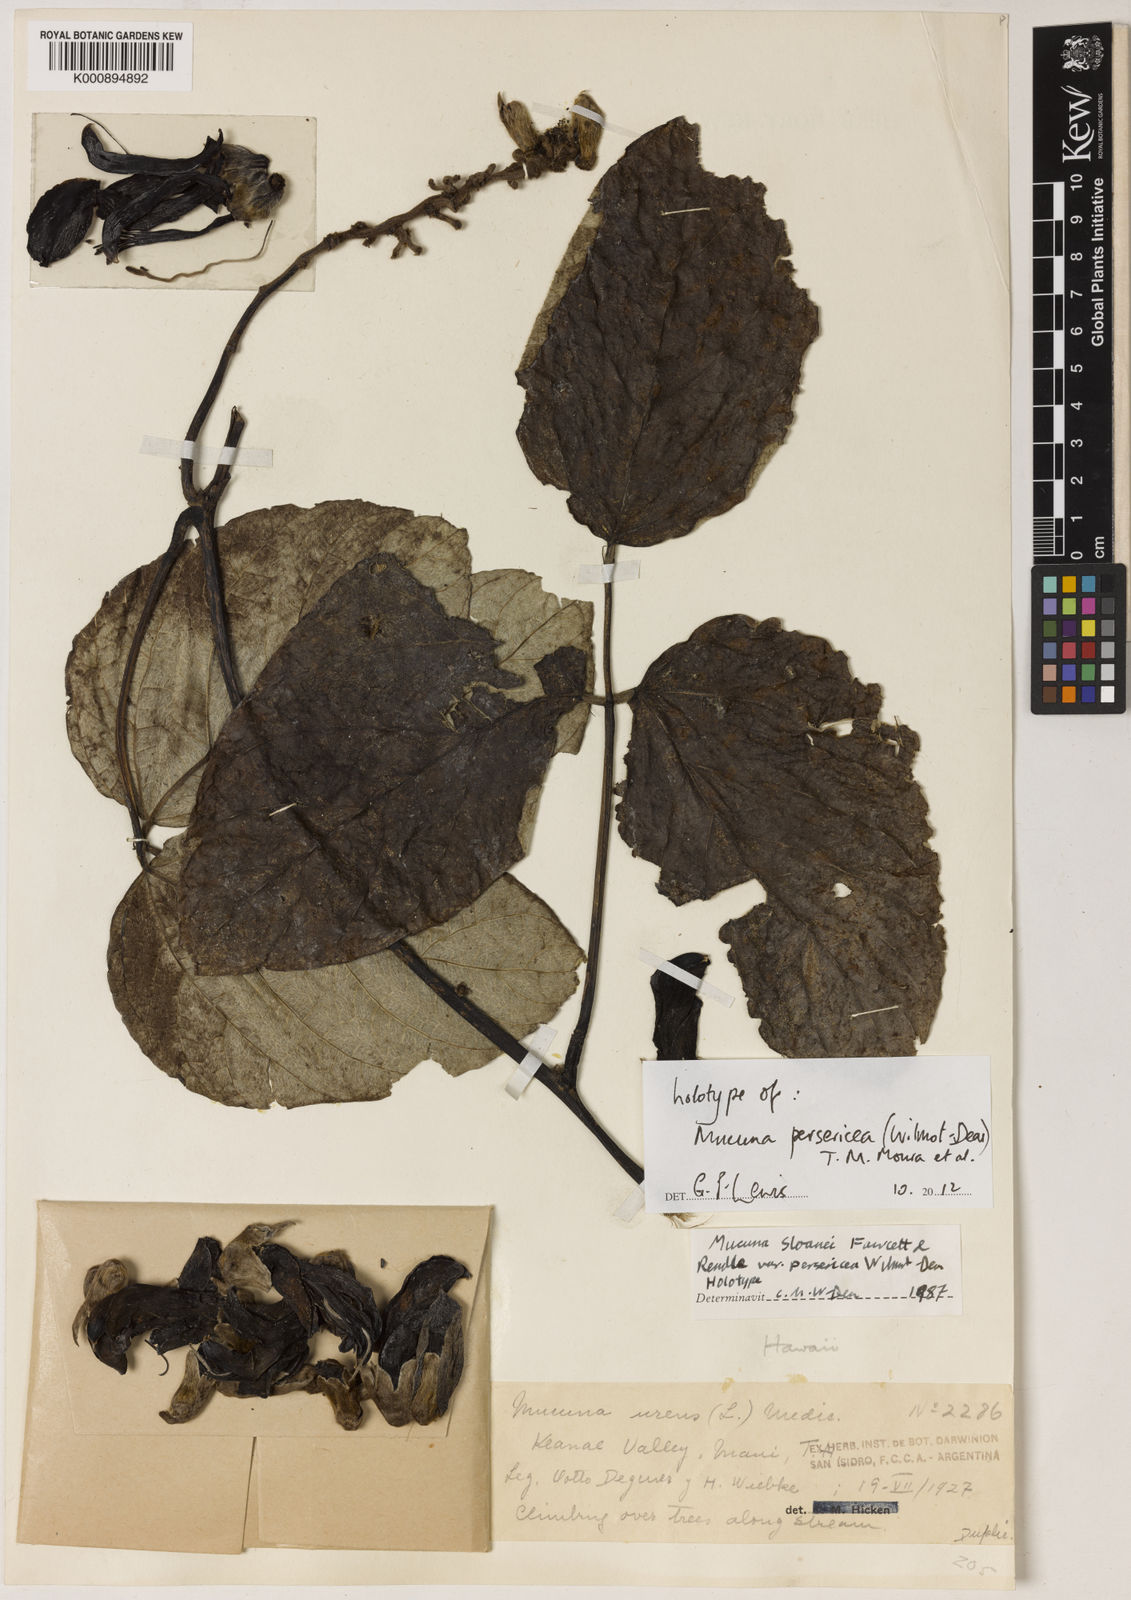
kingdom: Plantae
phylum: Tracheophyta
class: Magnoliopsida
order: Fabales
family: Fabaceae
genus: Mucuna
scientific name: Mucuna persericea
